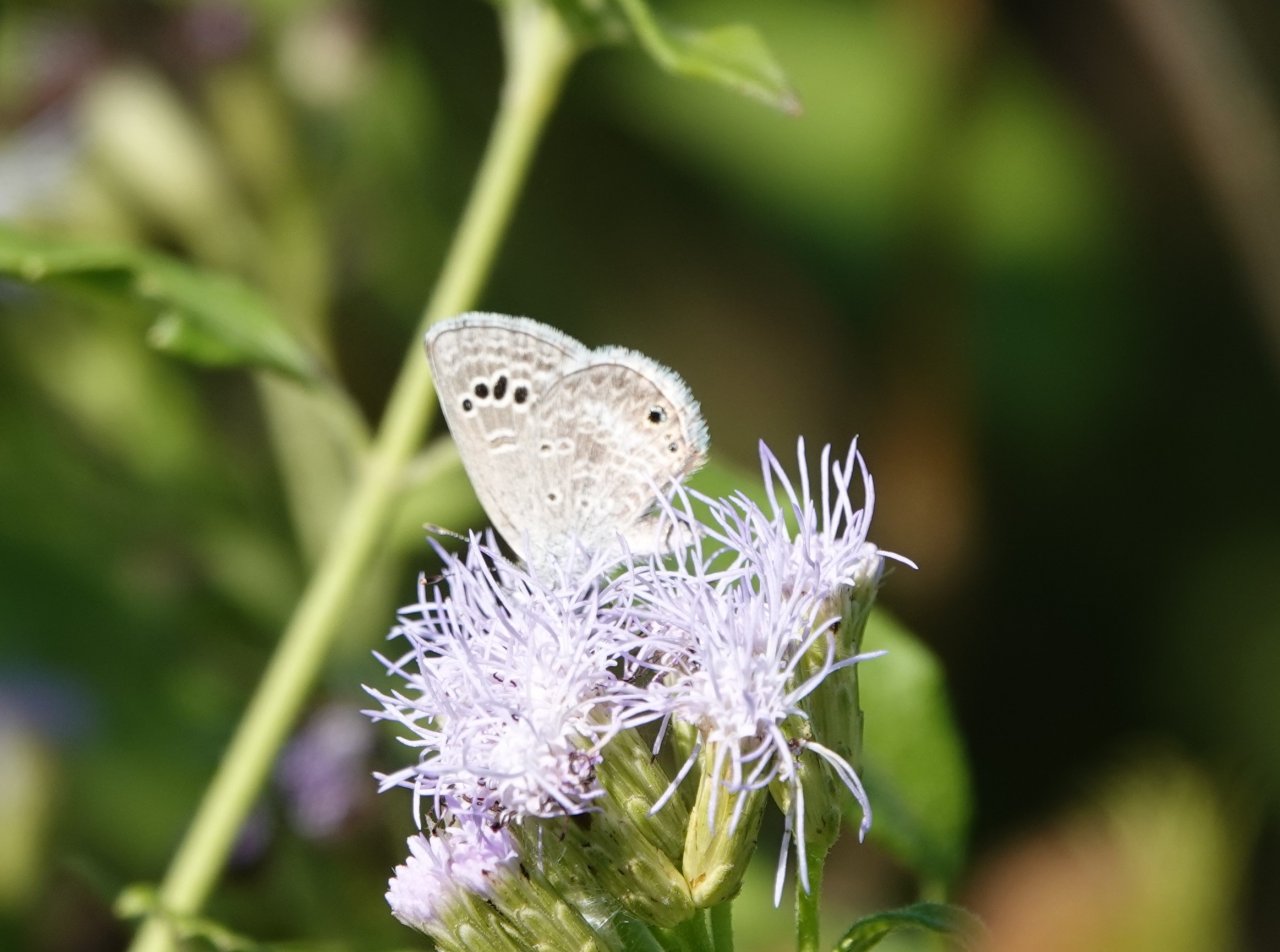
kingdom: Animalia
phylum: Arthropoda
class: Insecta
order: Lepidoptera
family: Lycaenidae
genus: Echinargus
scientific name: Echinargus isola
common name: Reakirt's Blue
